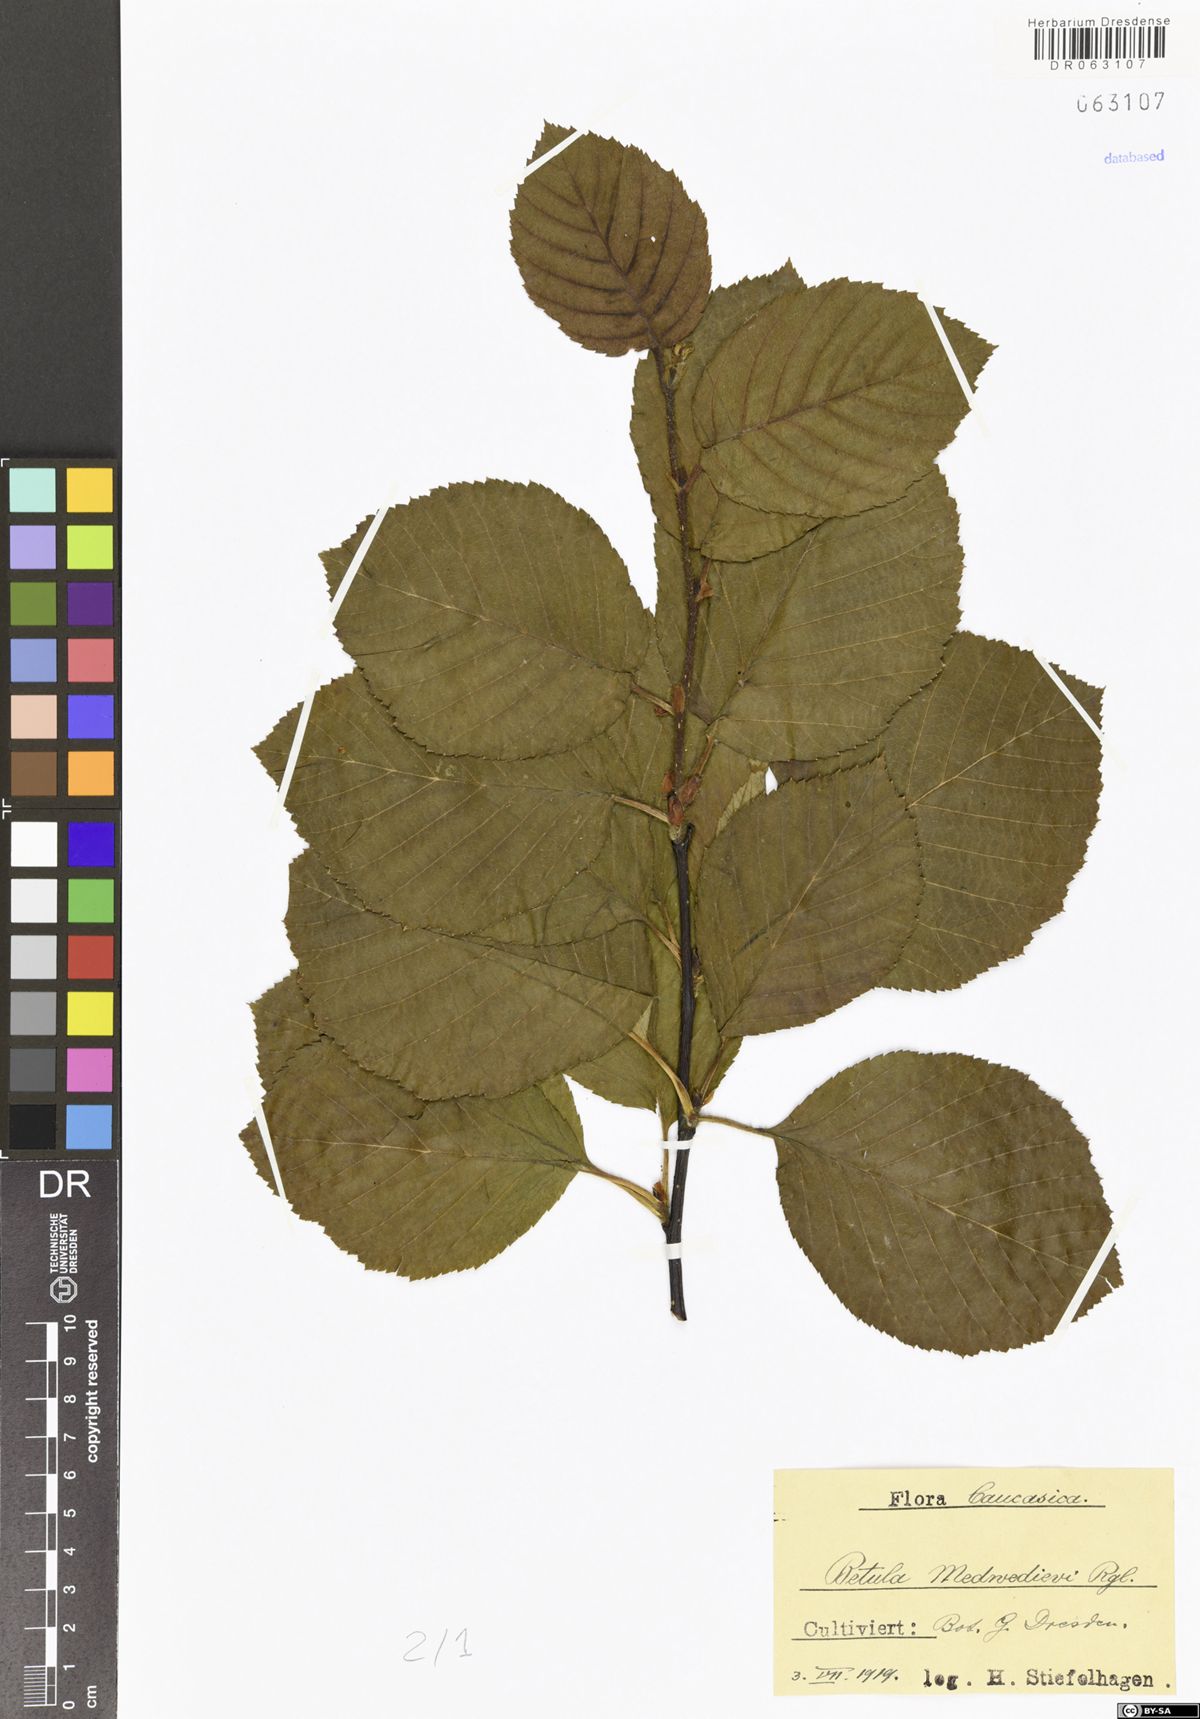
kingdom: Plantae
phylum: Tracheophyta
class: Magnoliopsida
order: Fagales
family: Betulaceae
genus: Betula
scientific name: Betula medwediewii
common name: Medwediew's birch
